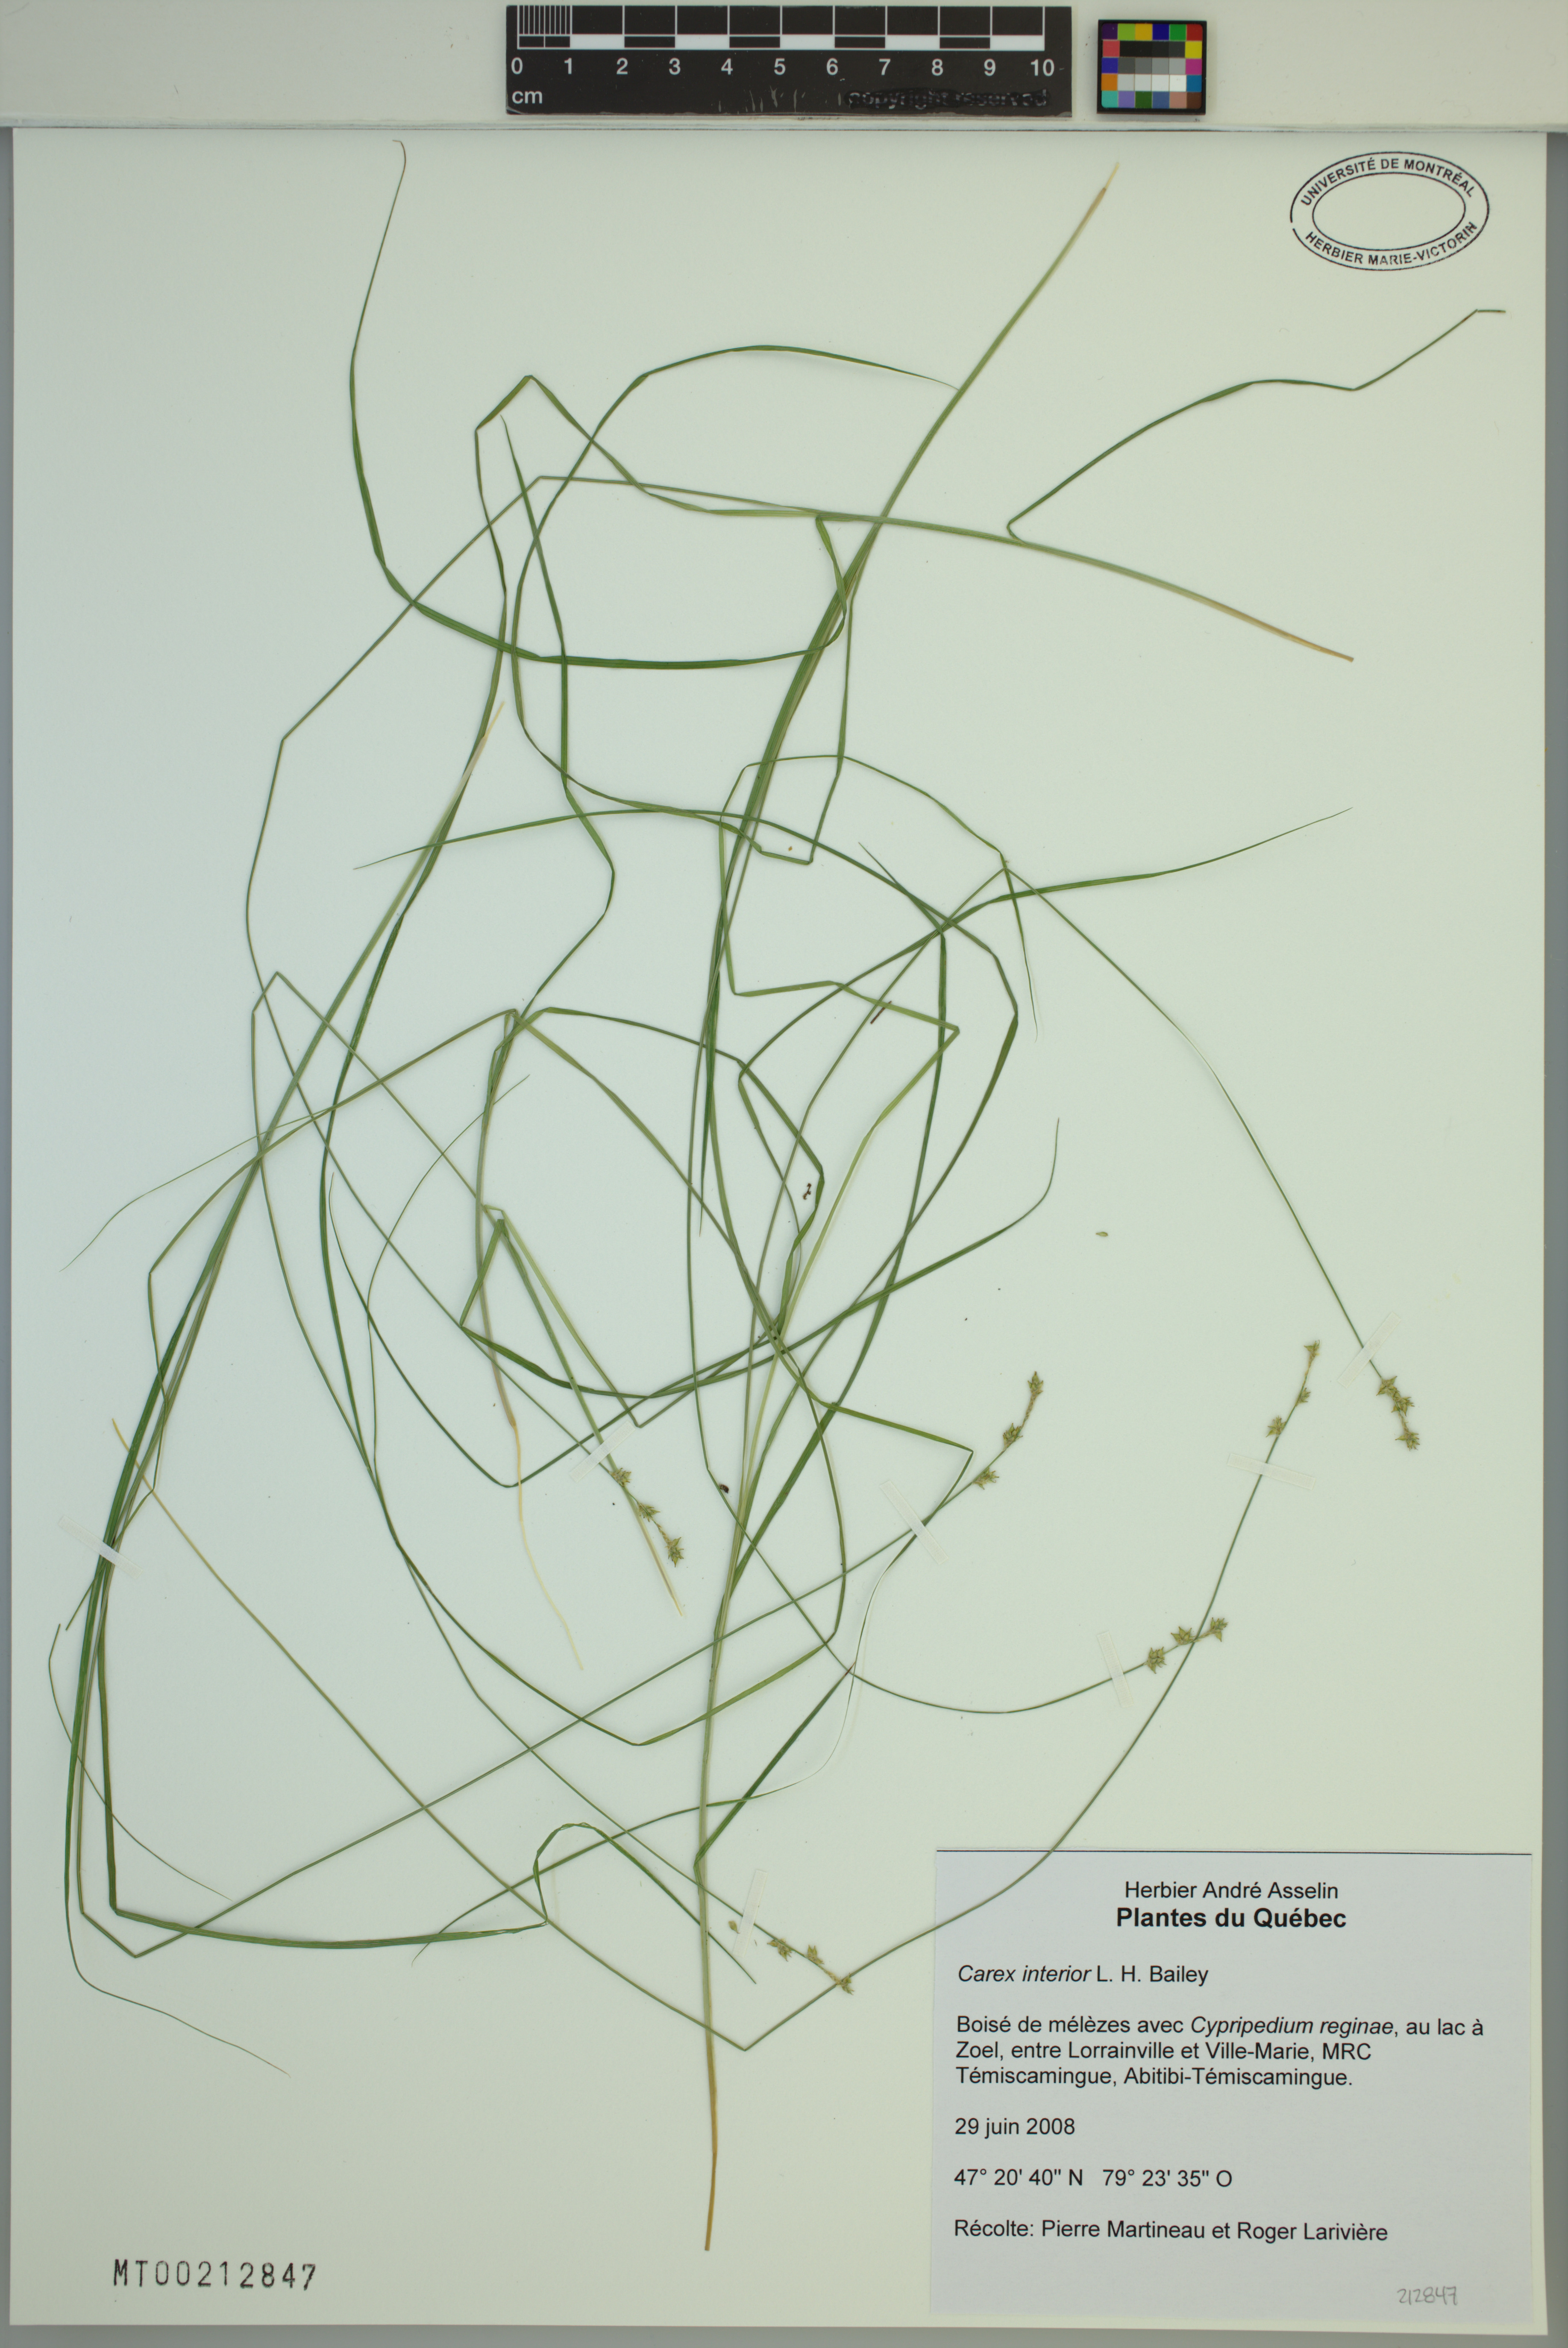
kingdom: Plantae
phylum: Tracheophyta
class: Liliopsida
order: Poales
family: Cyperaceae
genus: Carex
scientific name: Carex interior
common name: Inland sedge
